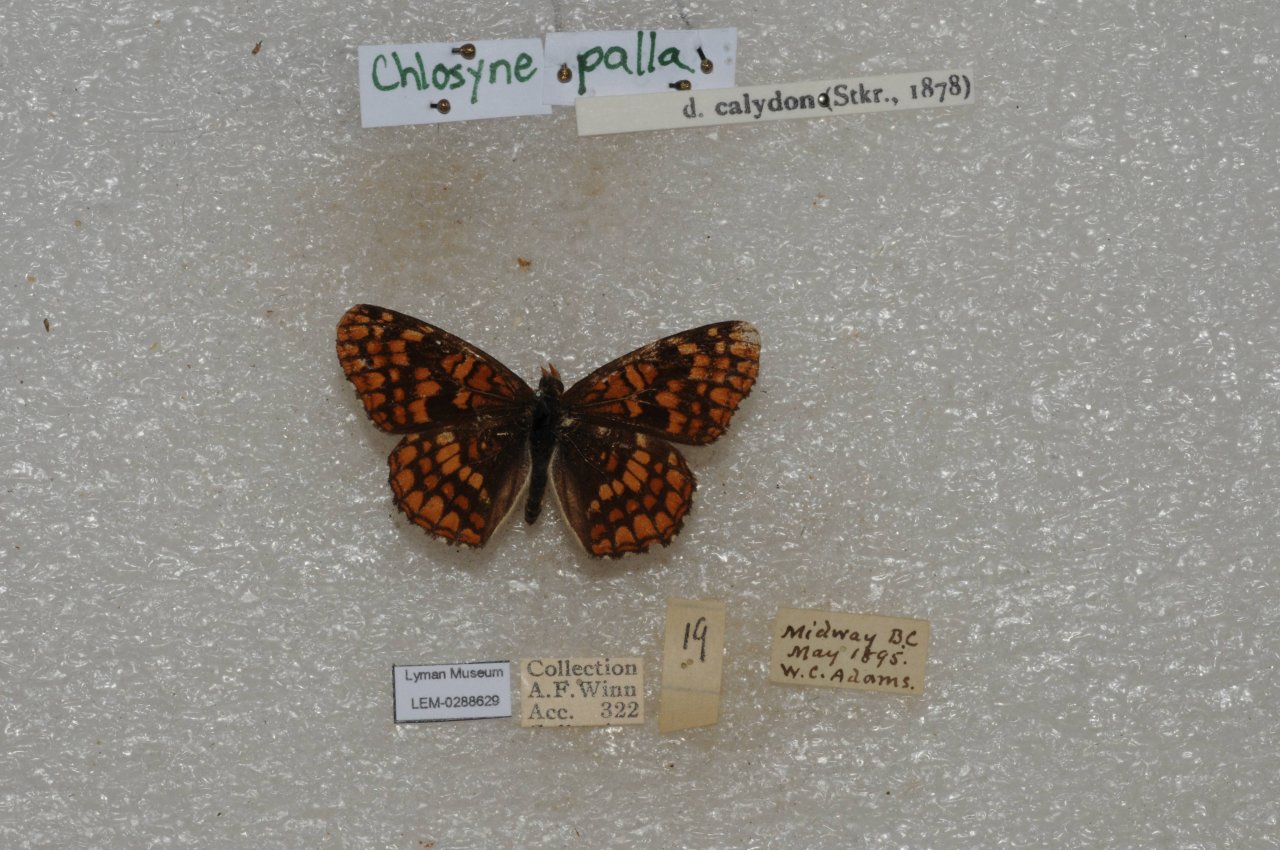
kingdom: Animalia
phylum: Arthropoda
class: Insecta
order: Lepidoptera
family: Nymphalidae
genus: Chlosyne
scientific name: Chlosyne palla
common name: Northern Checkerspot
